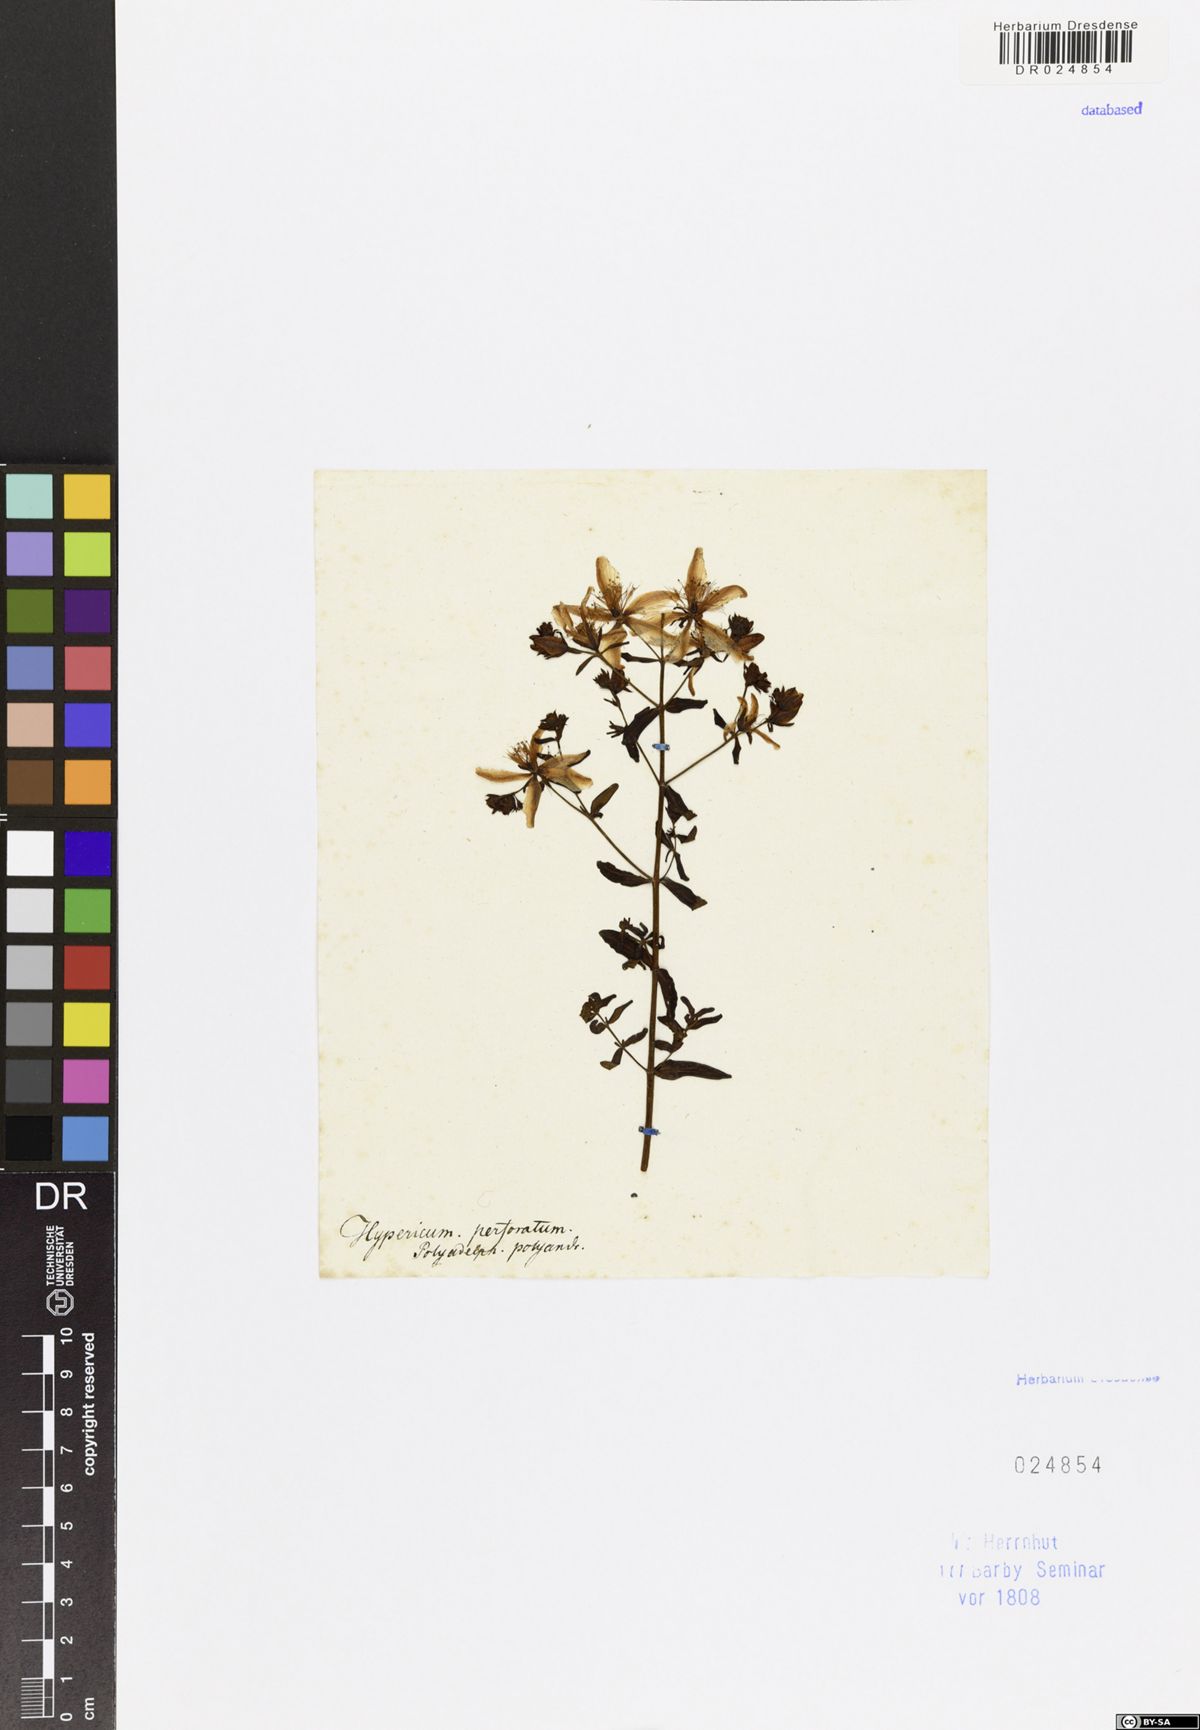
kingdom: Plantae
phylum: Tracheophyta
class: Magnoliopsida
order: Malpighiales
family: Hypericaceae
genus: Hypericum
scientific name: Hypericum perforatum
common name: Common st. johnswort
